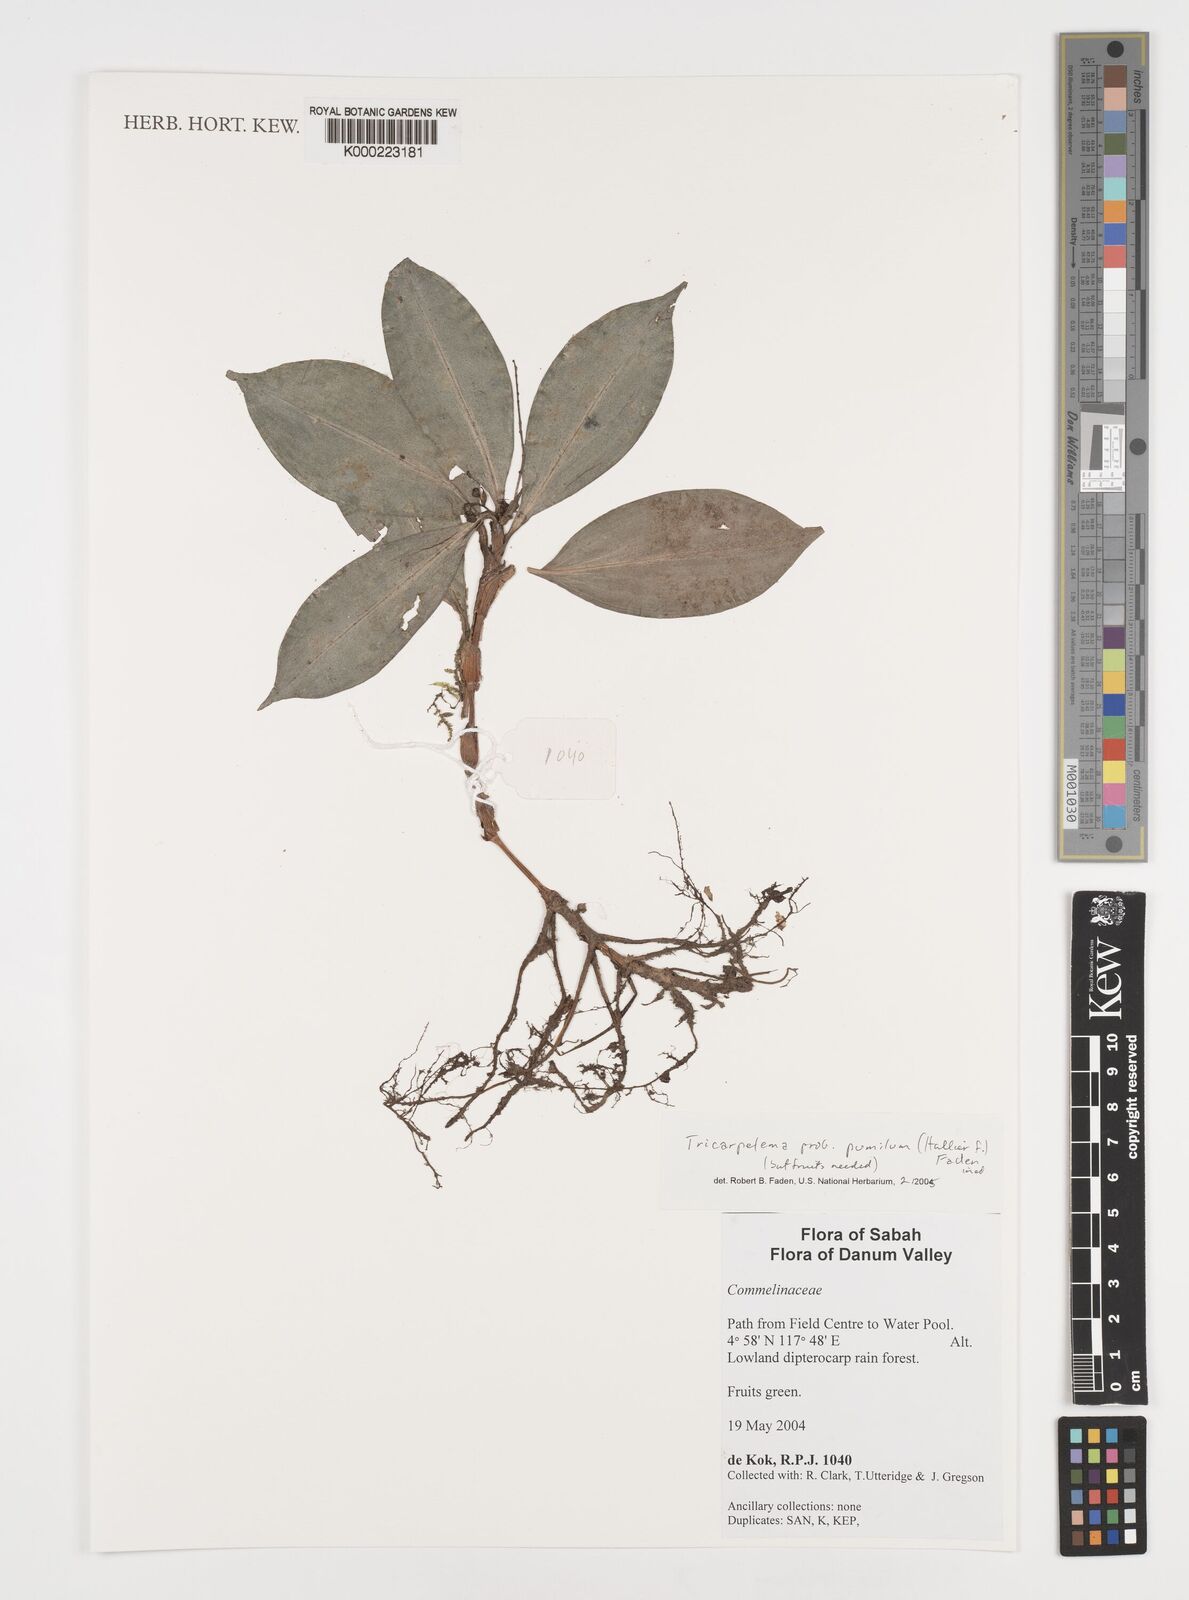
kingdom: Plantae
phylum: Tracheophyta
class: Liliopsida
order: Commelinales
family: Commelinaceae
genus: Tricarpelema
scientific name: Tricarpelema
